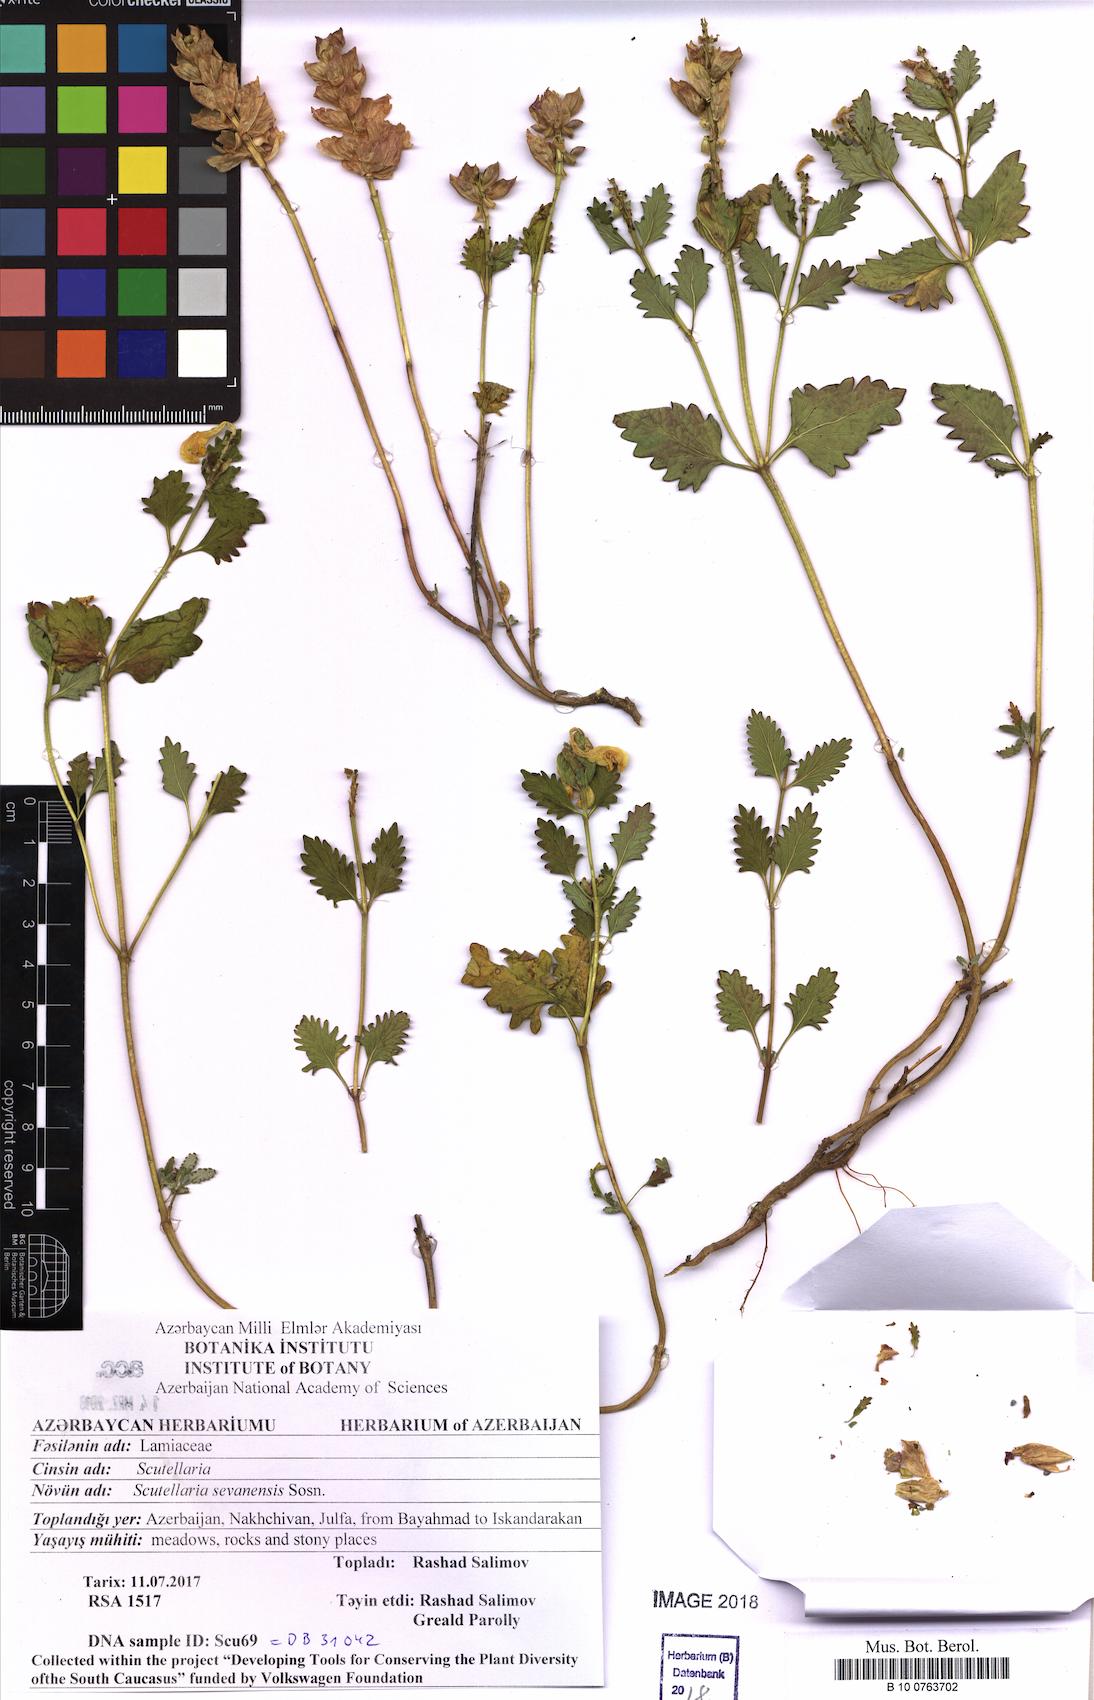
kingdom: Plantae
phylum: Tracheophyta
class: Magnoliopsida
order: Lamiales
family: Lamiaceae
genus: Scutellaria
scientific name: Scutellaria sevanensis
